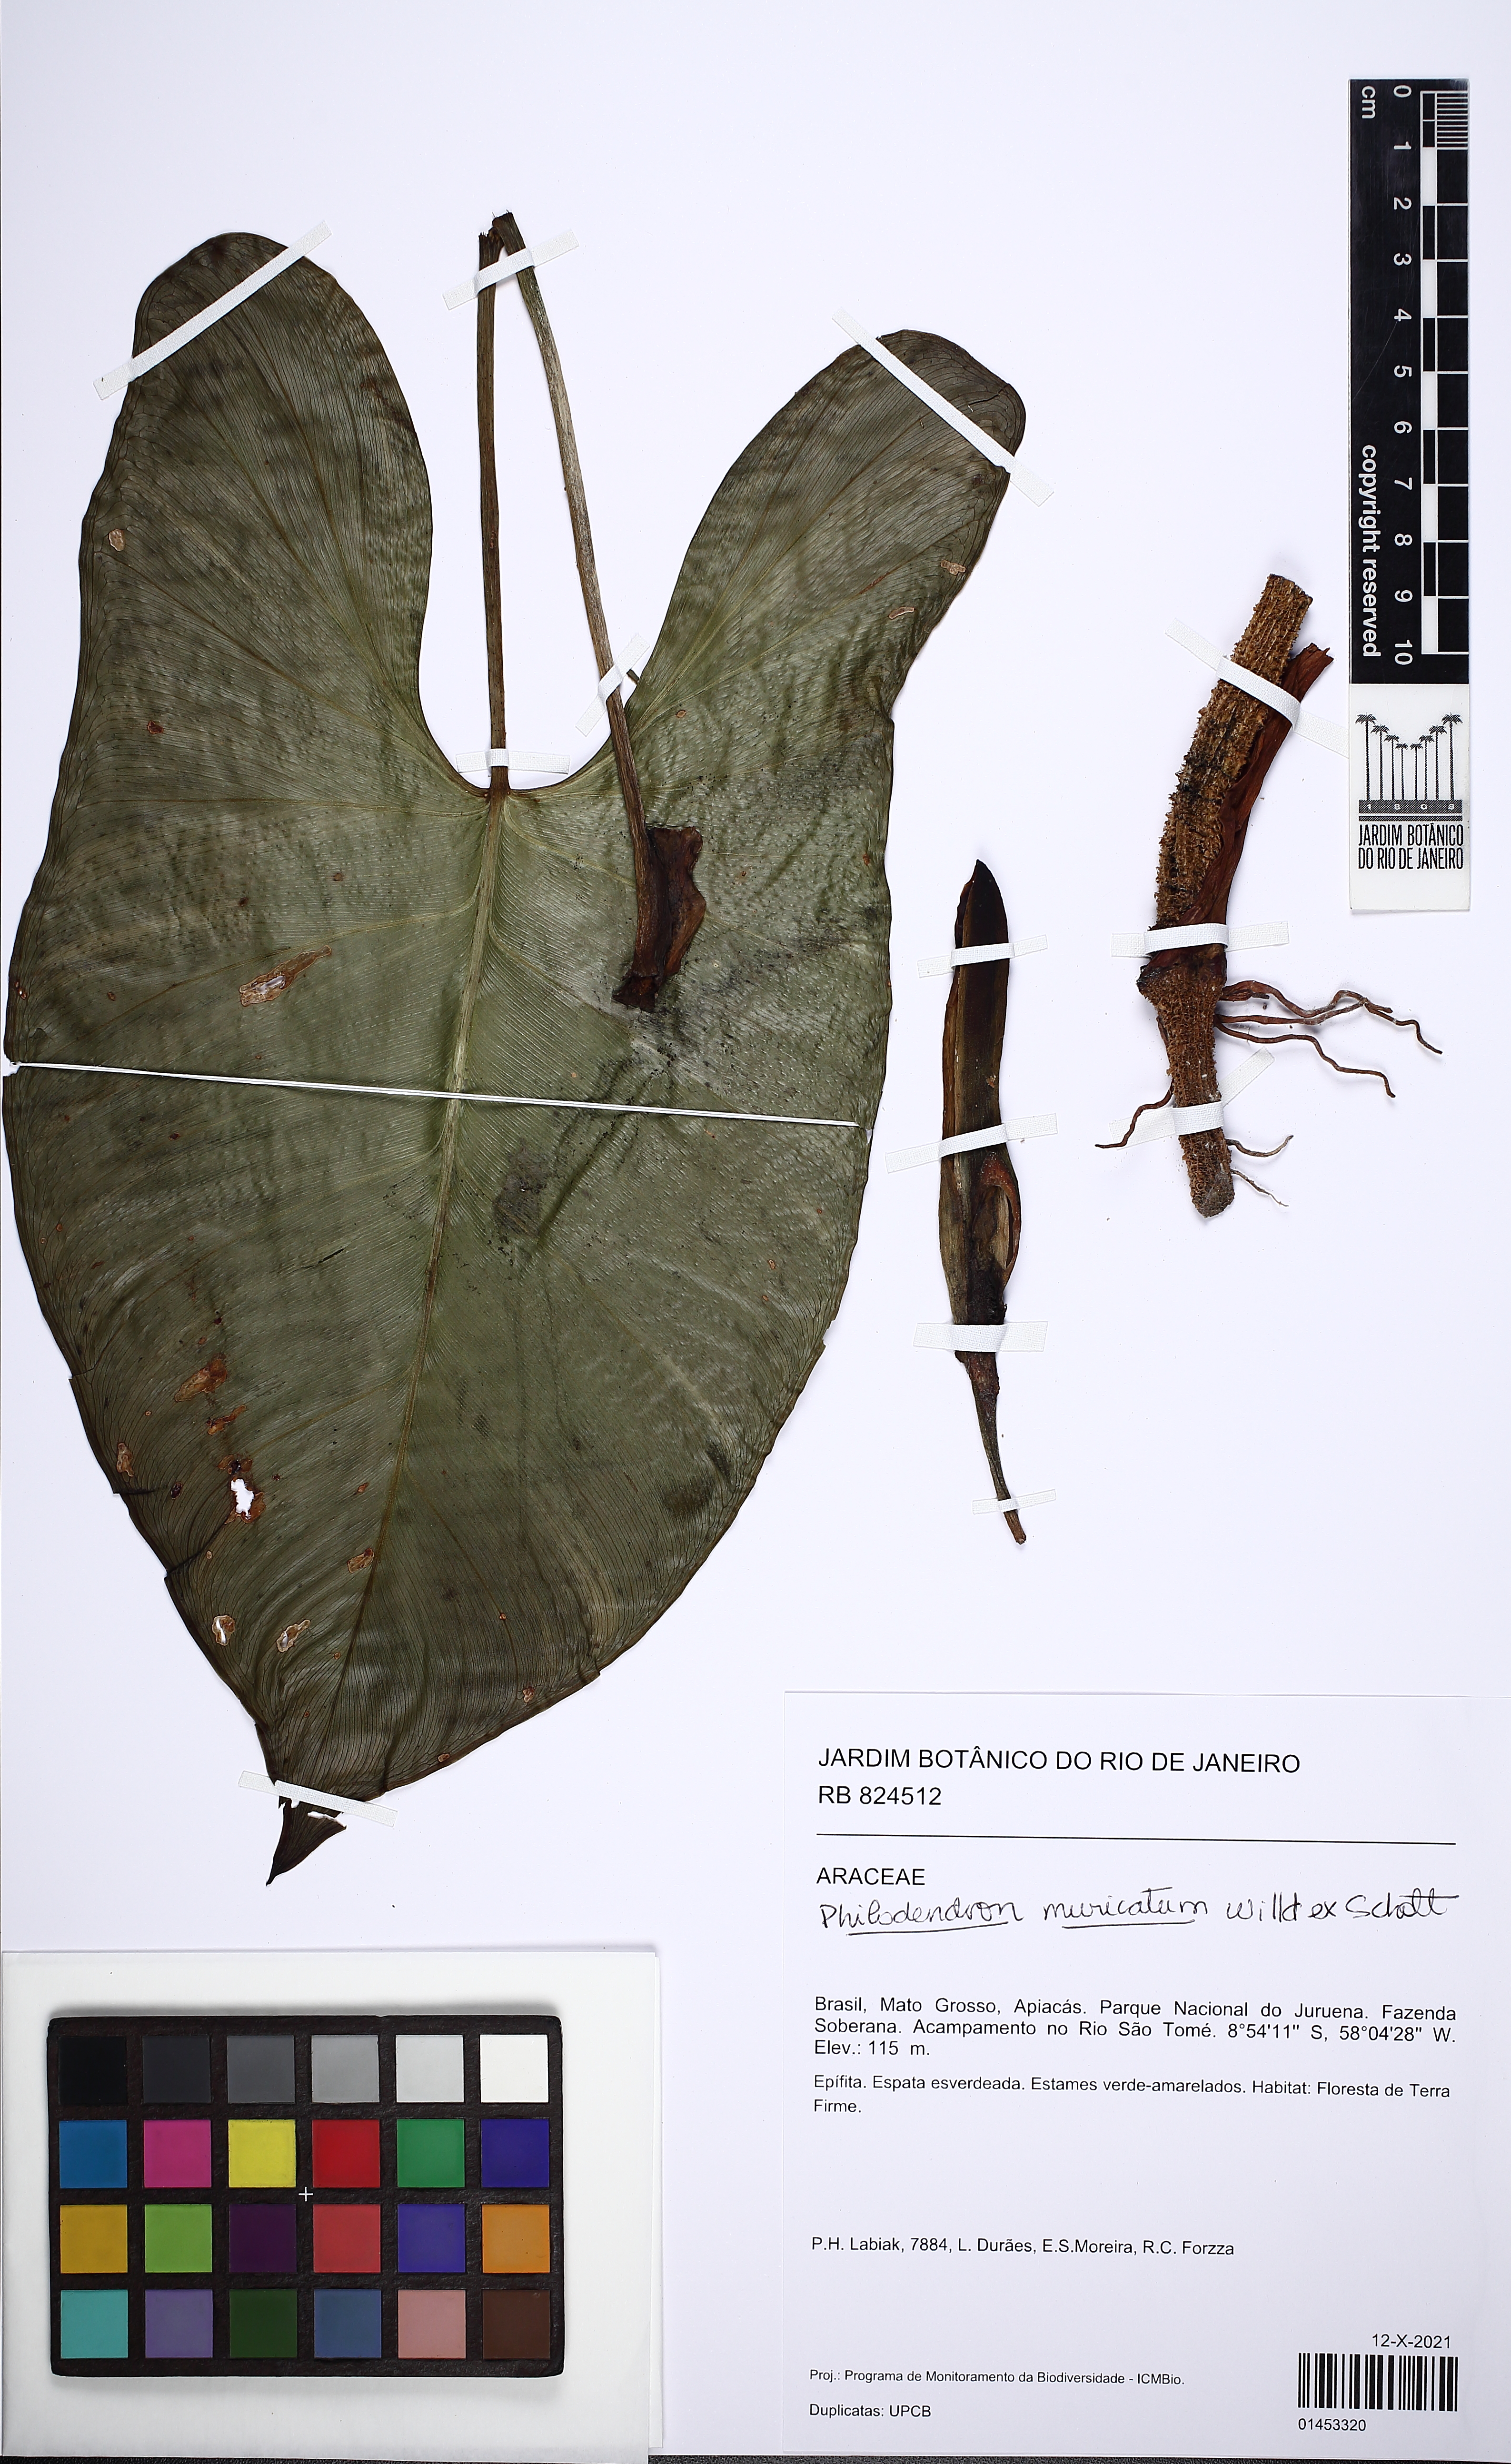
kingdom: Plantae
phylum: Tracheophyta
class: Liliopsida
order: Alismatales
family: Araceae
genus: Philodendron
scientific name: Philodendron muricatum
